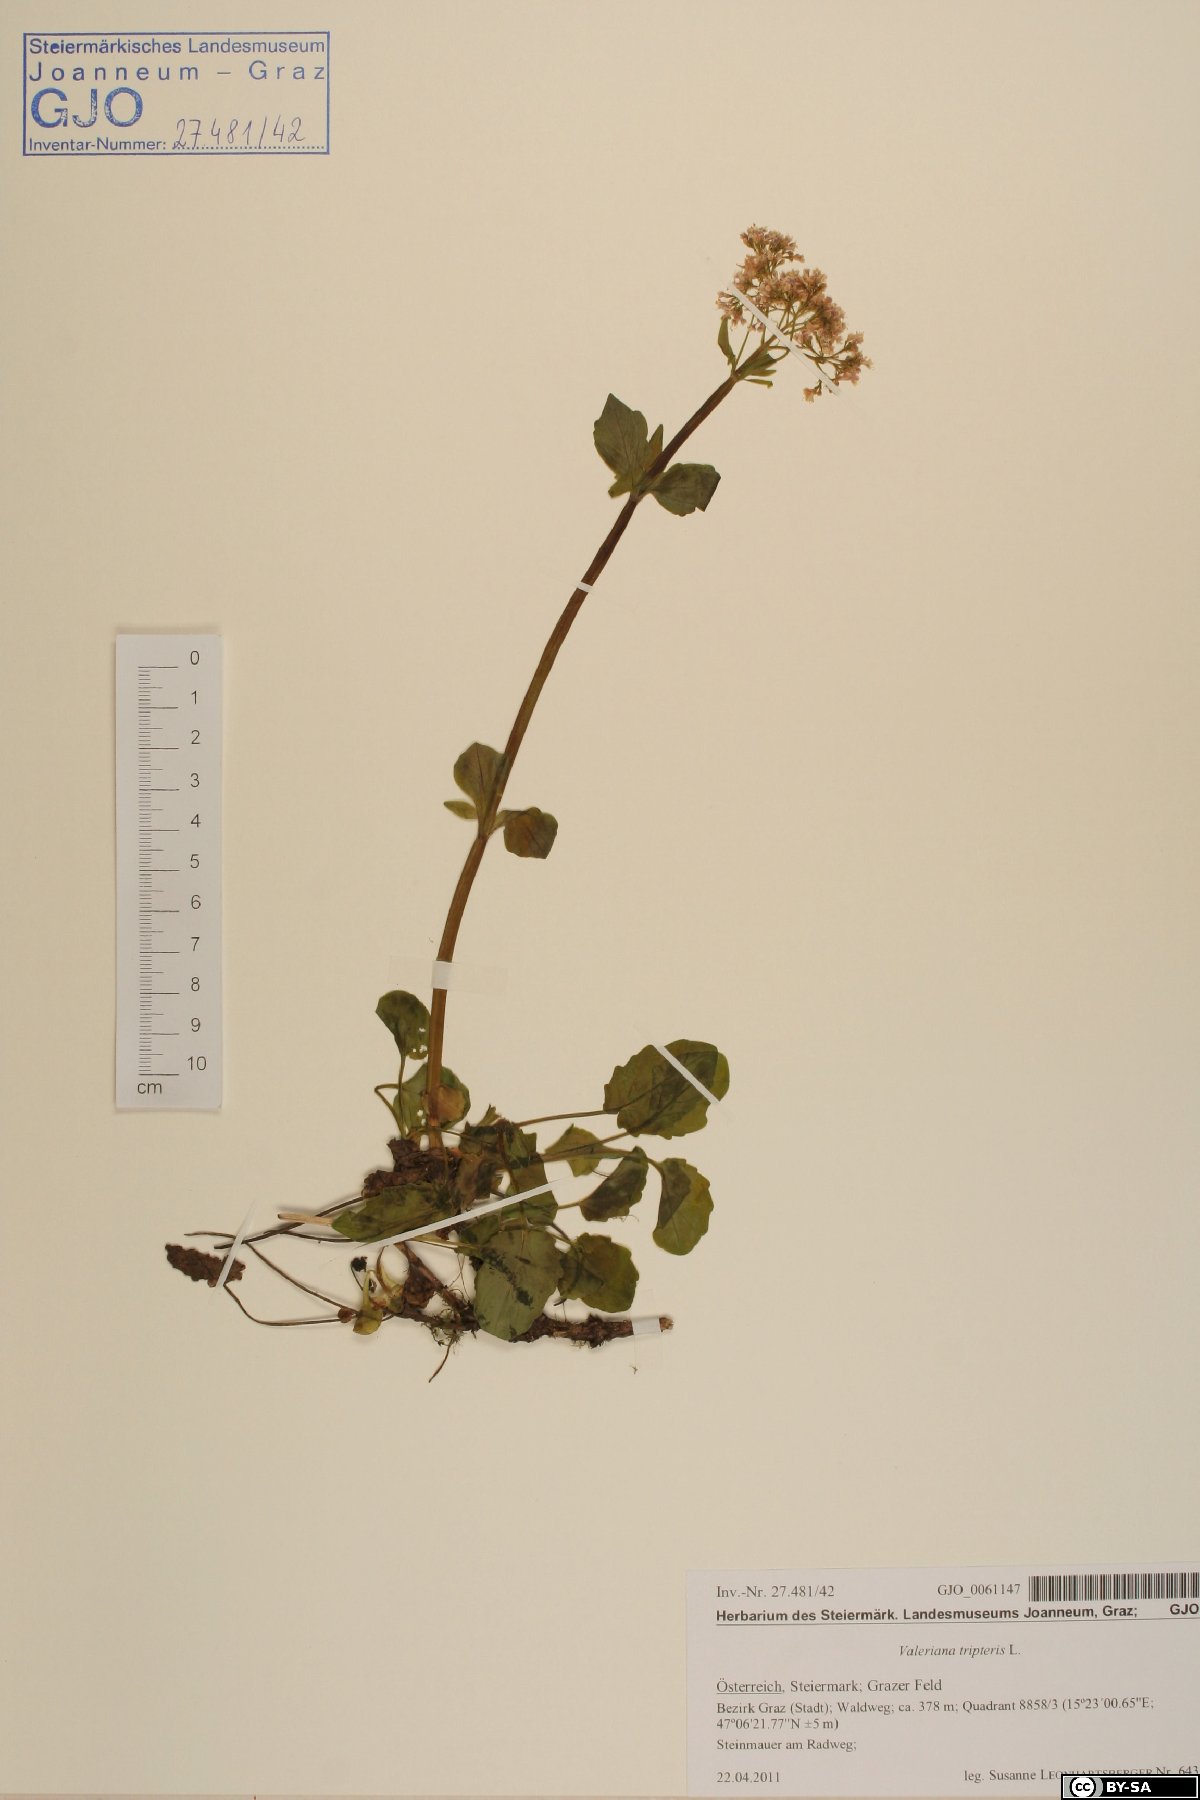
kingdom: Plantae
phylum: Tracheophyta
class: Magnoliopsida
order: Dipsacales
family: Caprifoliaceae
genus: Valeriana
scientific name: Valeriana tripteris
